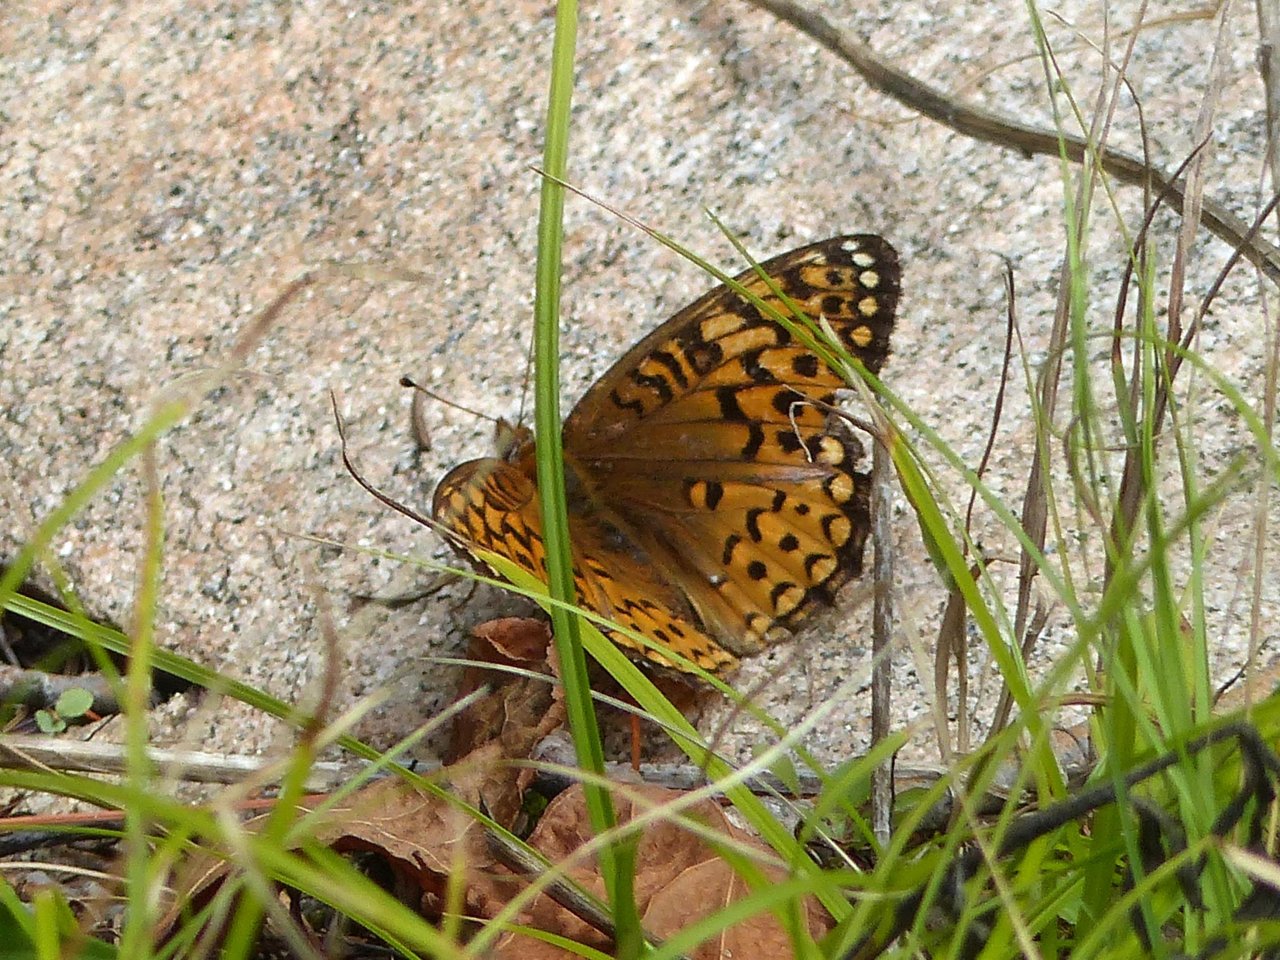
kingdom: Animalia
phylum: Arthropoda
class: Insecta
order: Lepidoptera
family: Nymphalidae
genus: Speyeria
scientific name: Speyeria cybele
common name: Great Spangled Fritillary
